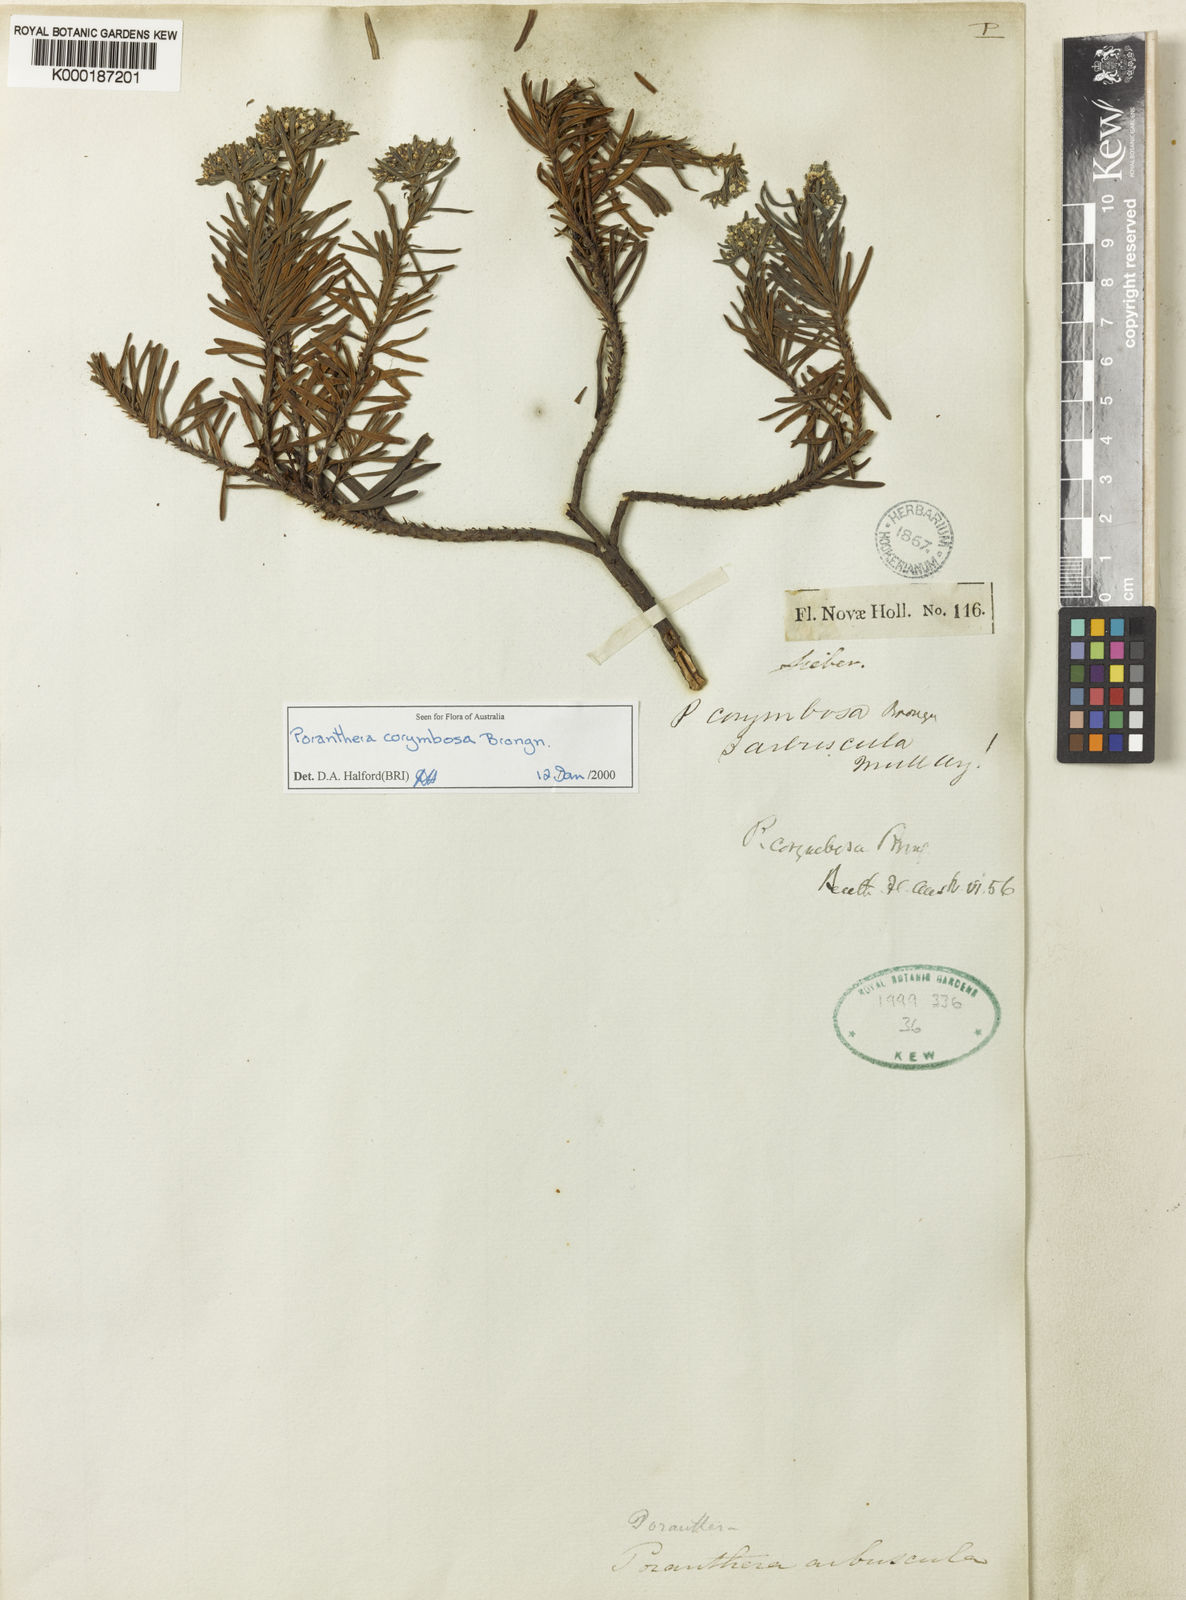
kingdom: Plantae
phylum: Tracheophyta
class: Magnoliopsida
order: Malpighiales
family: Phyllanthaceae
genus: Poranthera
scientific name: Poranthera corymbosa
